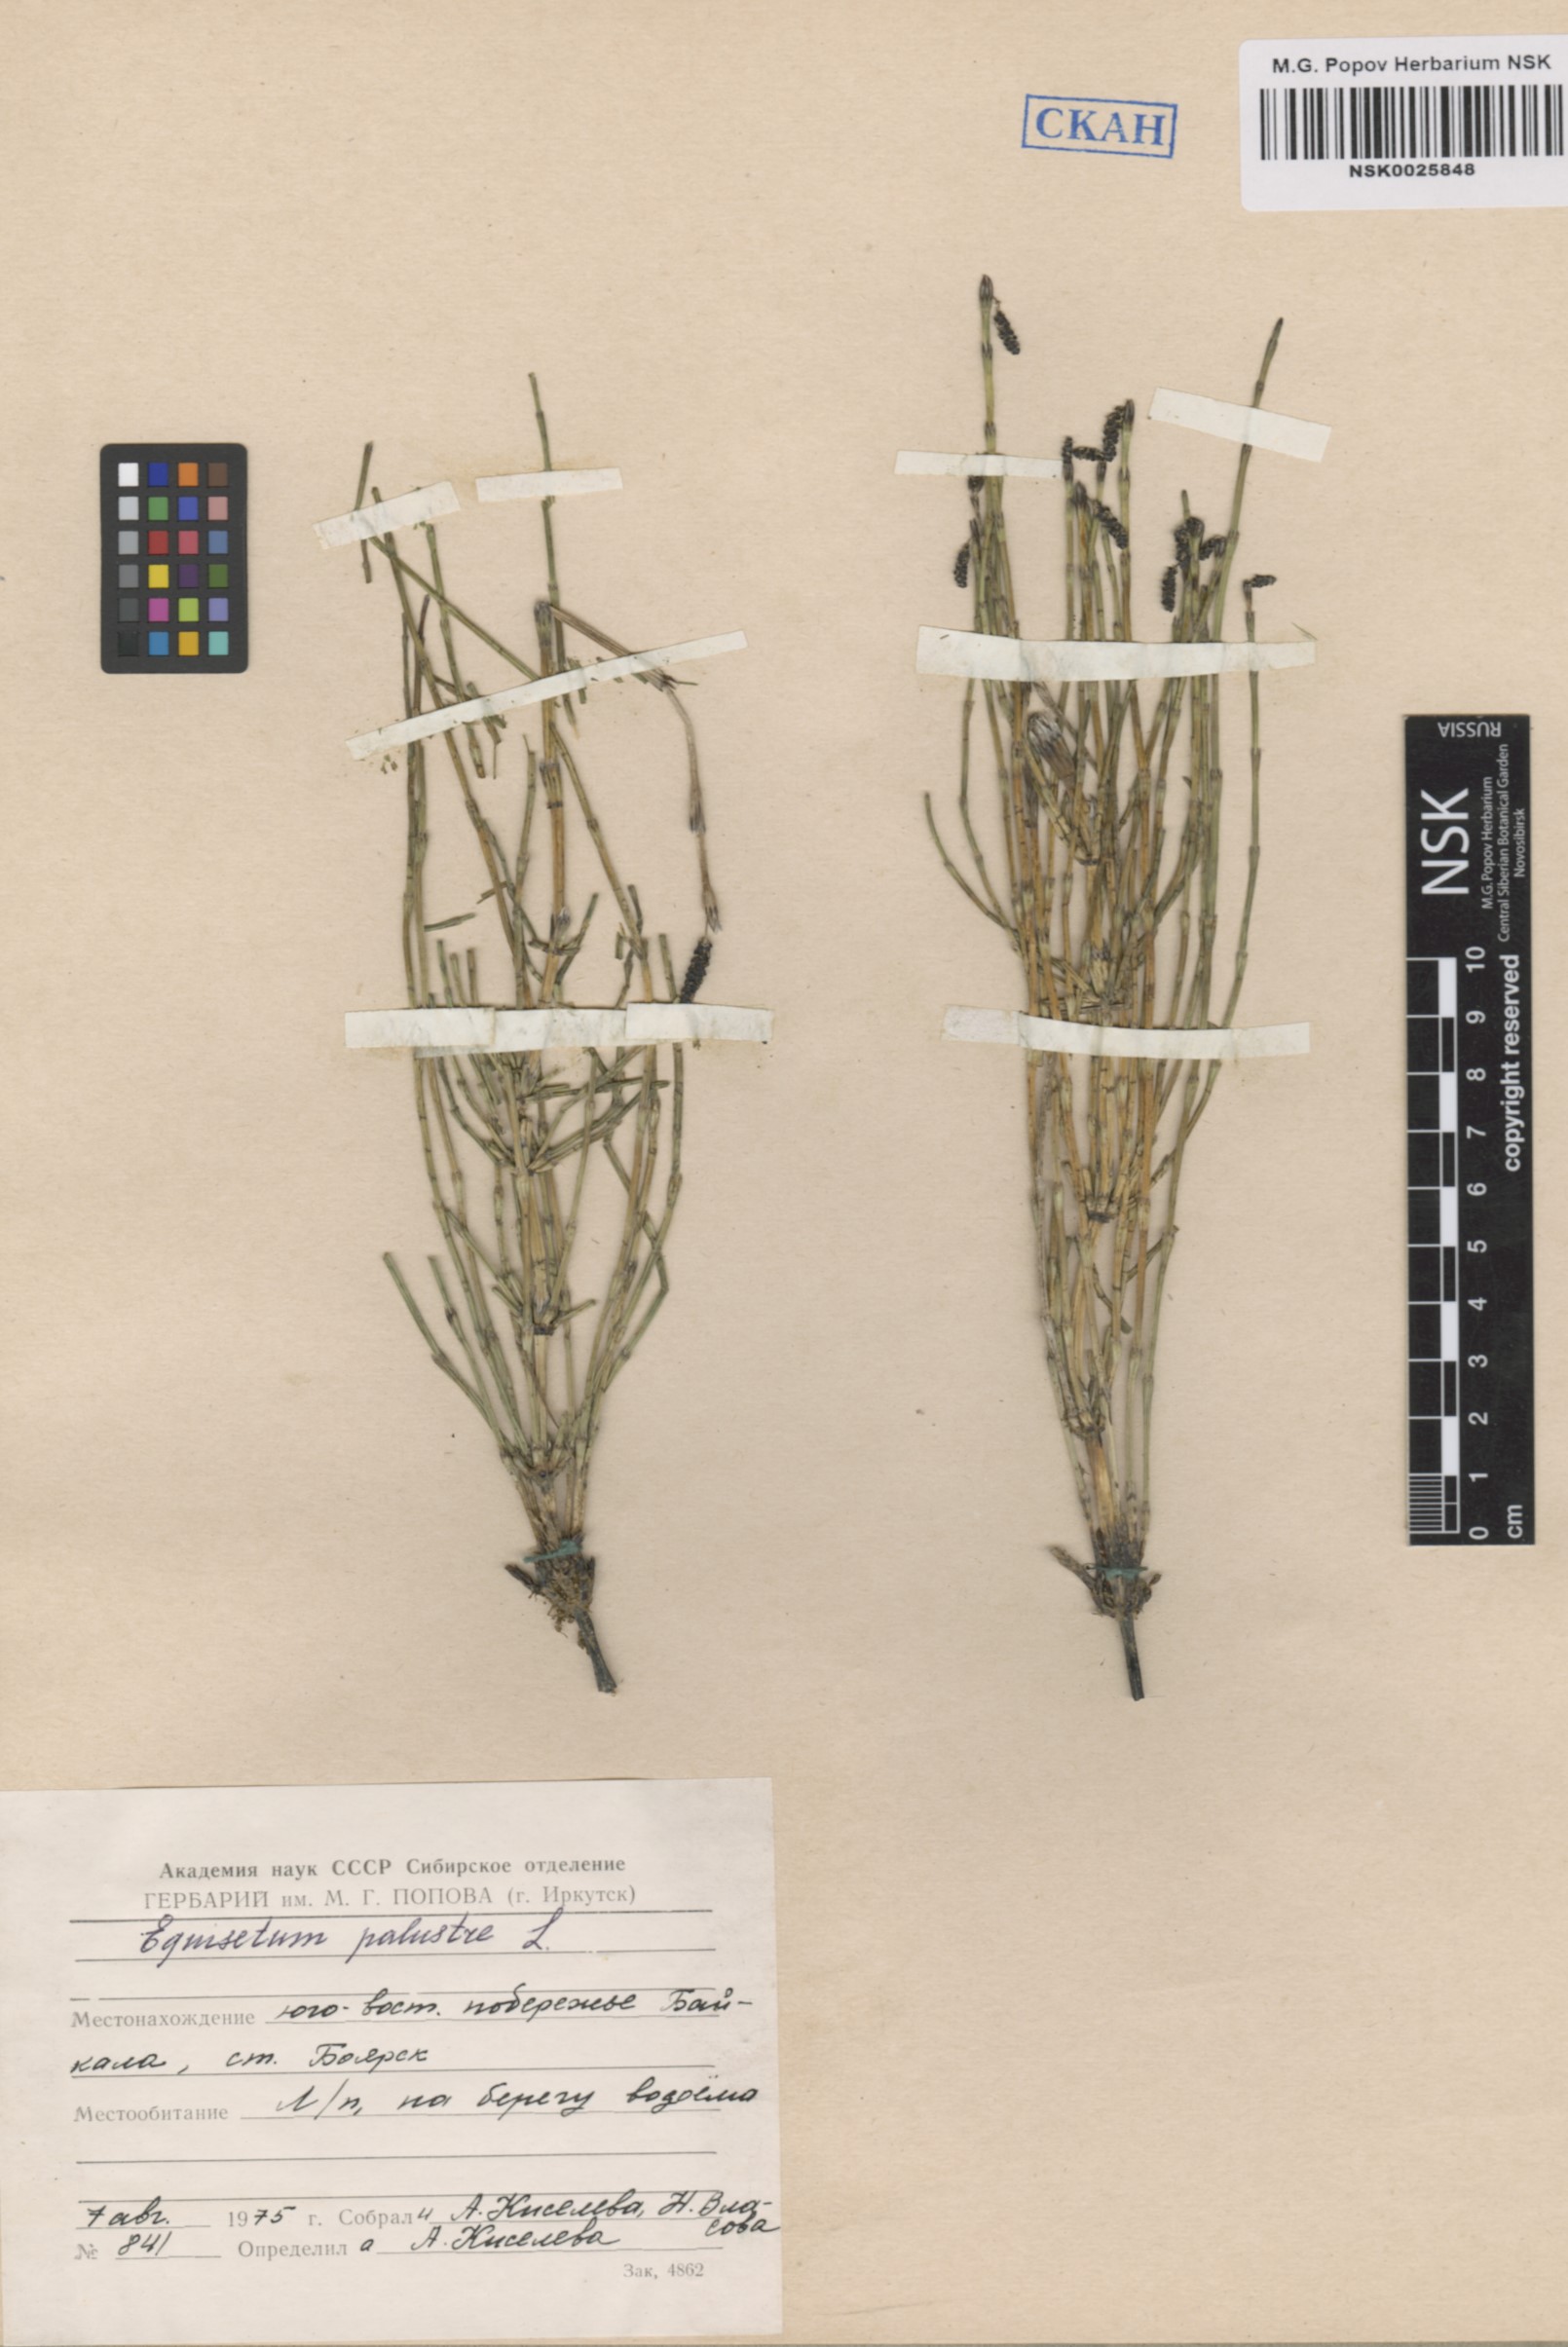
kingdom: Plantae
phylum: Tracheophyta
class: Polypodiopsida
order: Equisetales
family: Equisetaceae
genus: Equisetum
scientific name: Equisetum palustre
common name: Marsh horsetail
